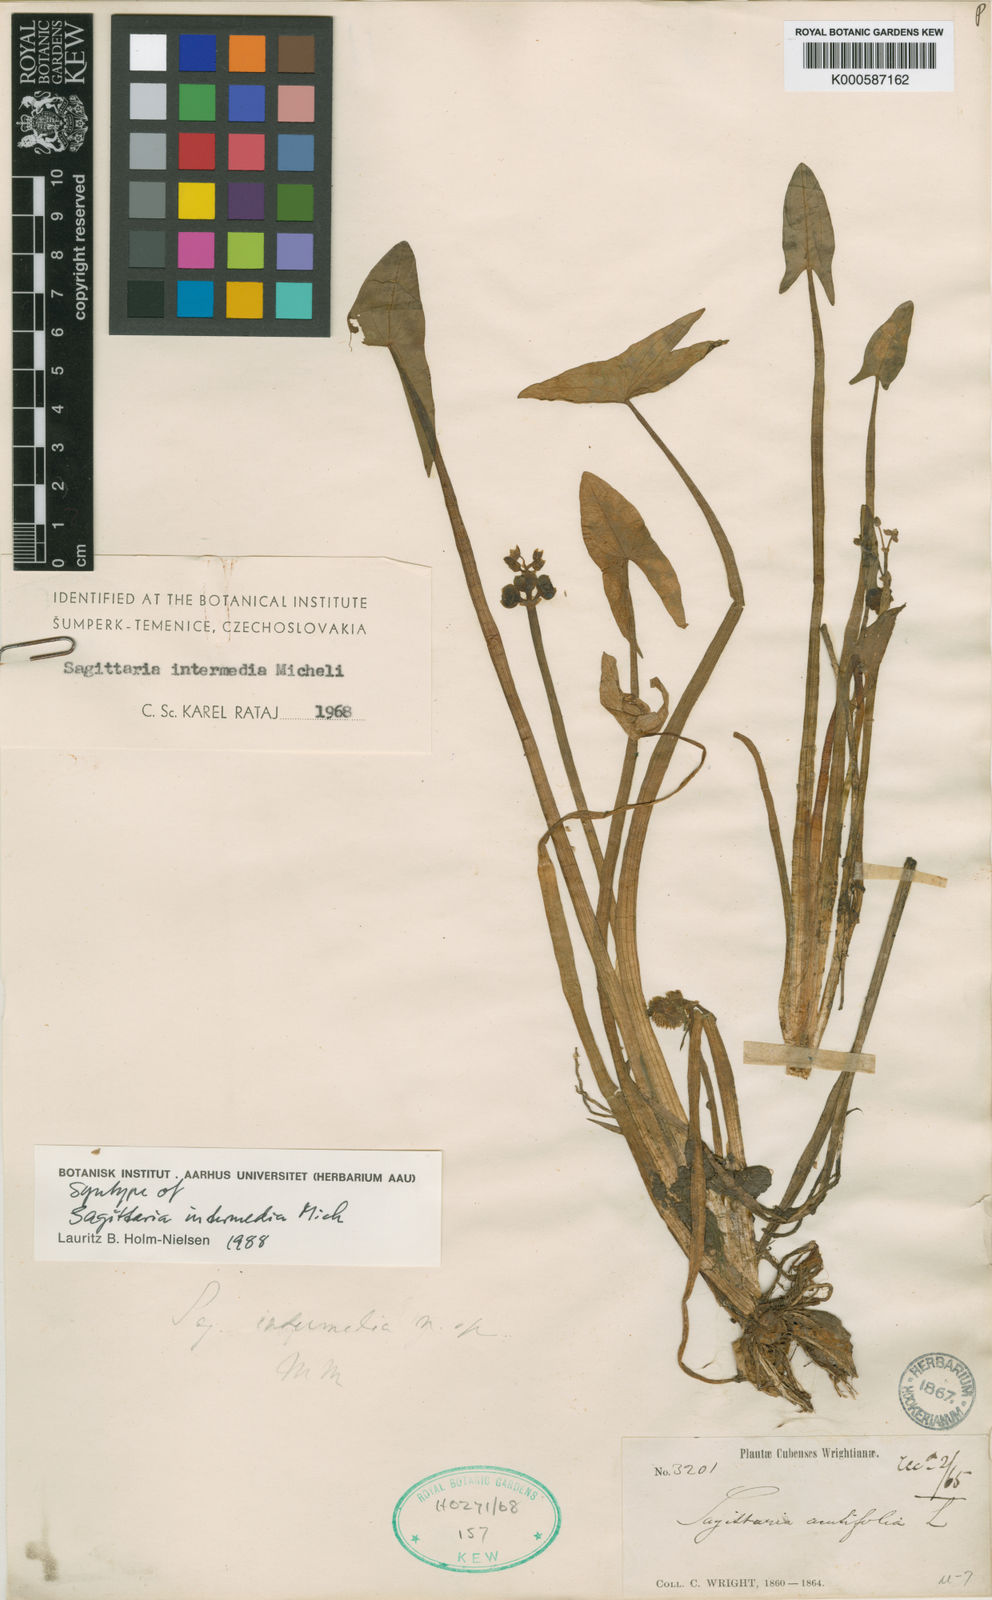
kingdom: Plantae
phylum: Tracheophyta
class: Liliopsida
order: Alismatales
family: Alismataceae
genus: Sagittaria
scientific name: Sagittaria intermedia
